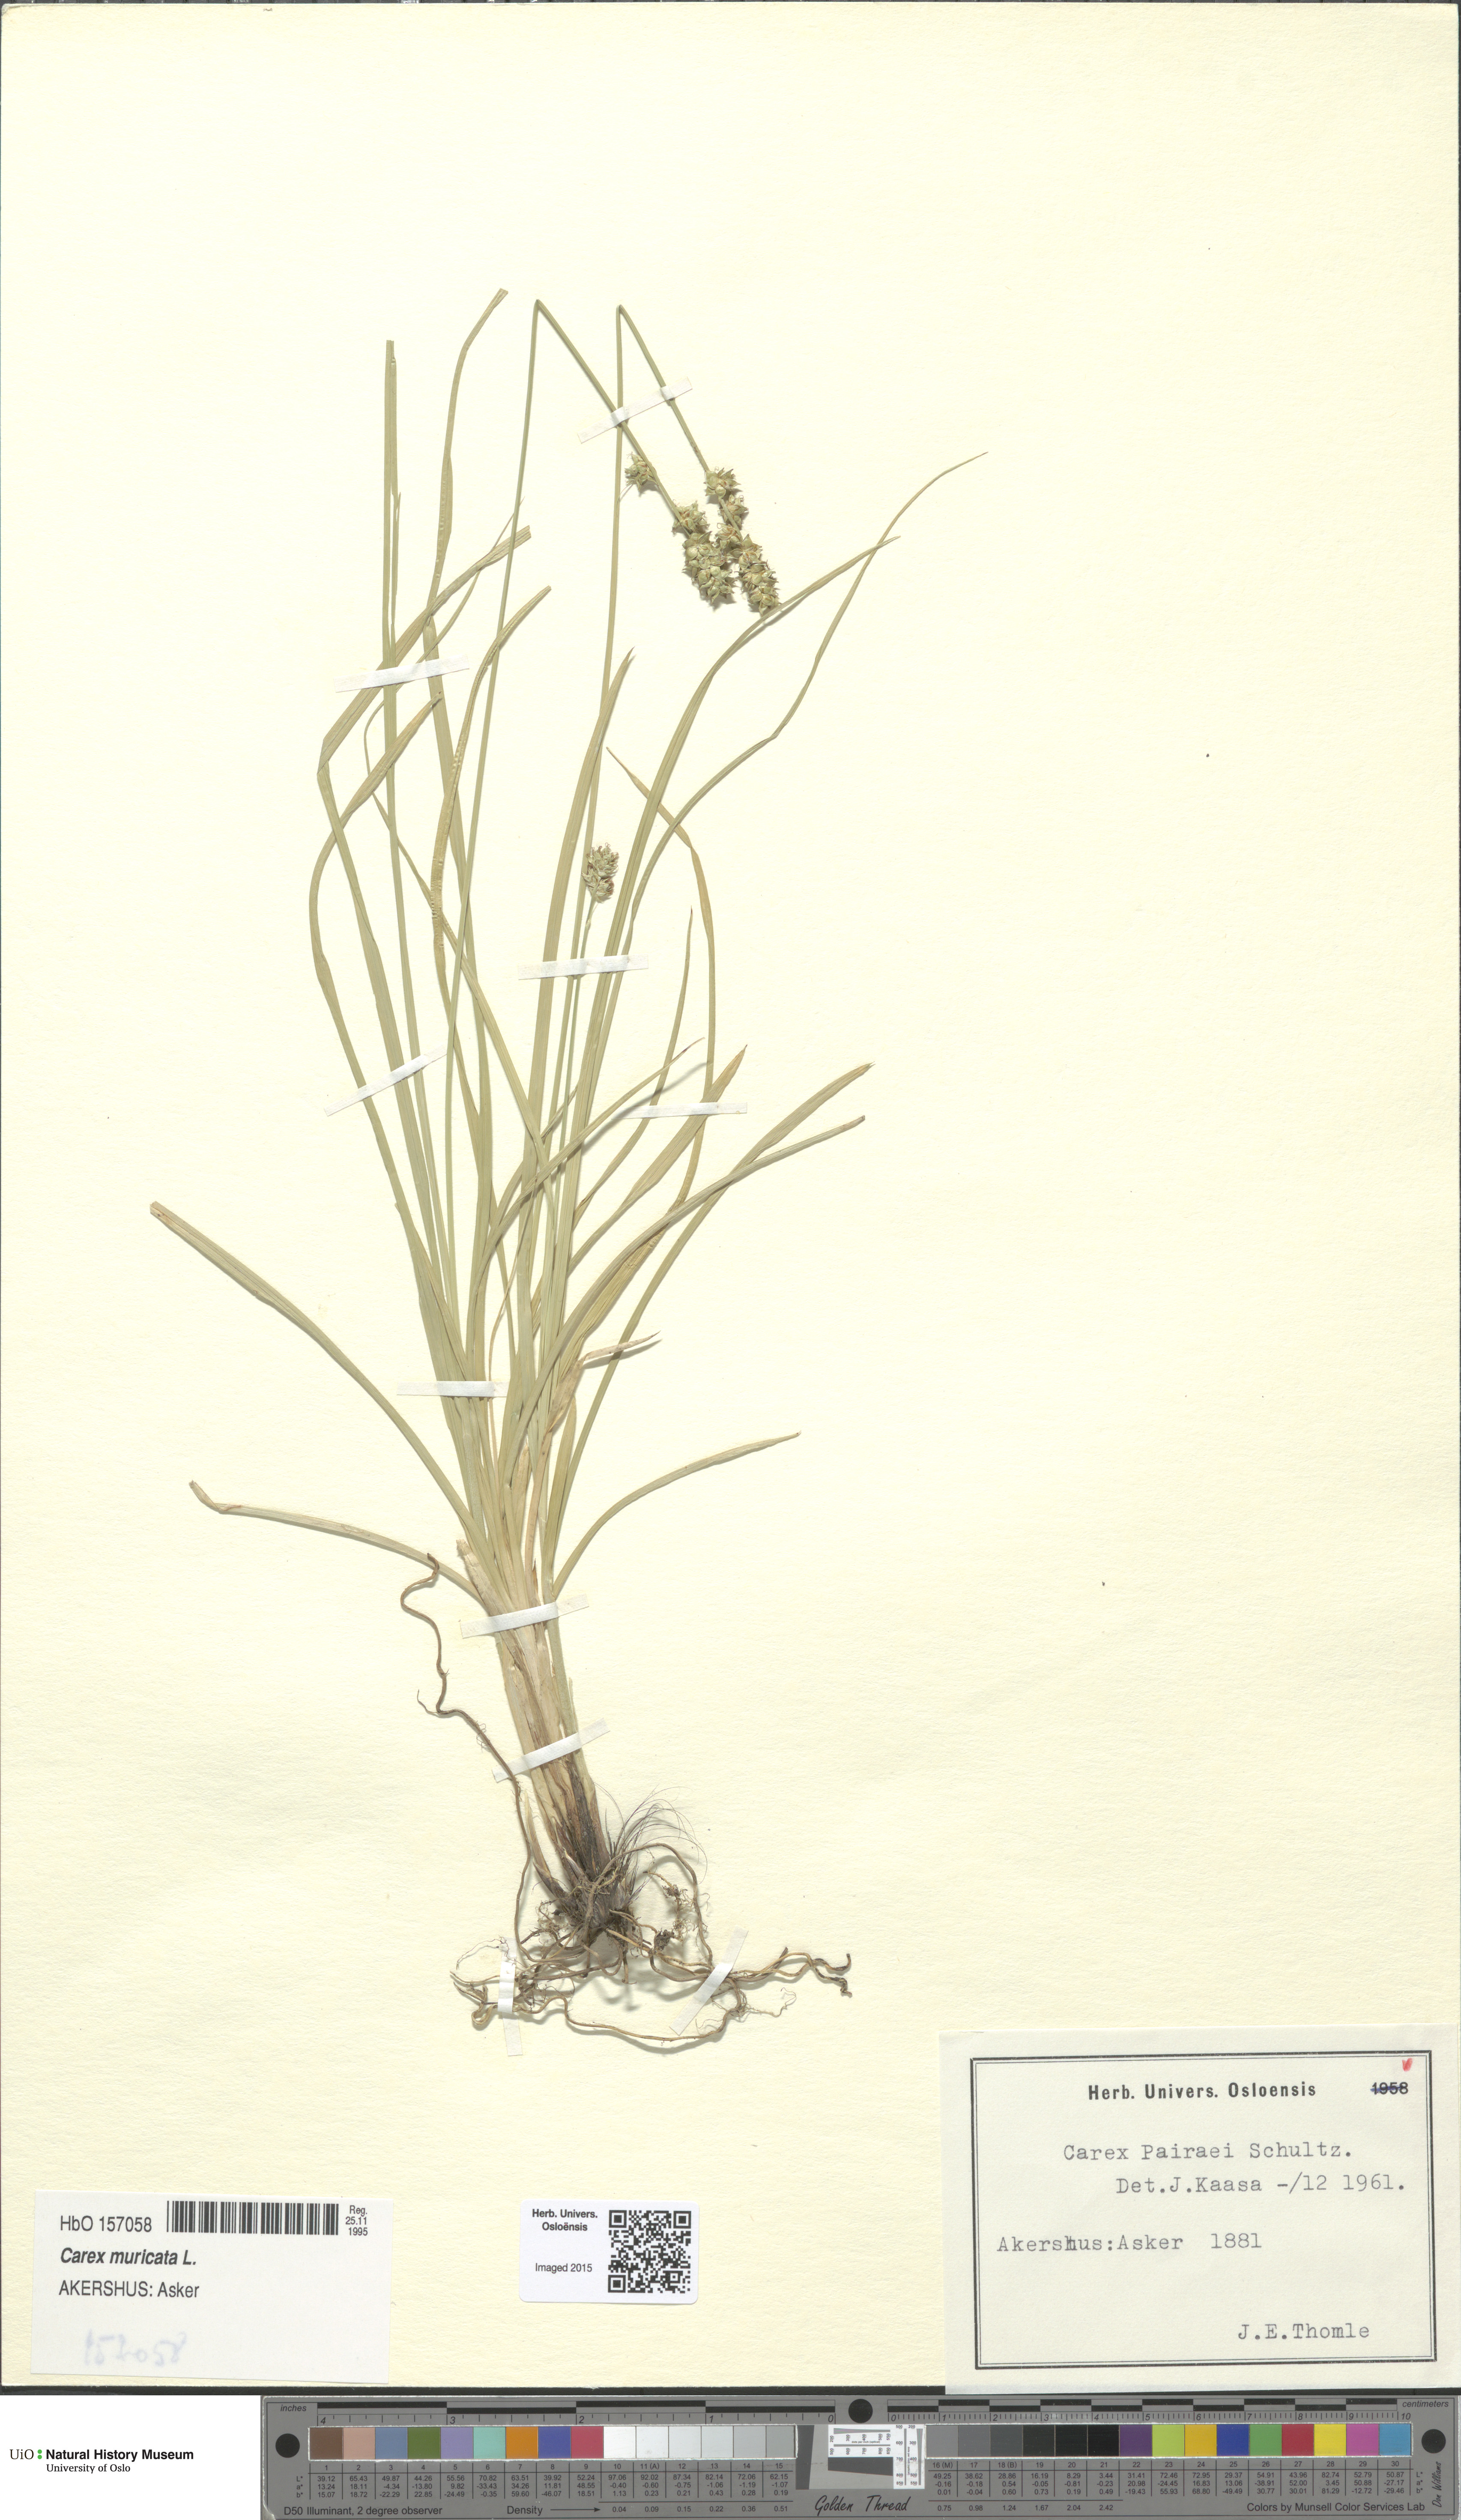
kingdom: Plantae
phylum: Tracheophyta
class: Liliopsida
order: Poales
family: Cyperaceae
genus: Carex
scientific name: Carex pairae
